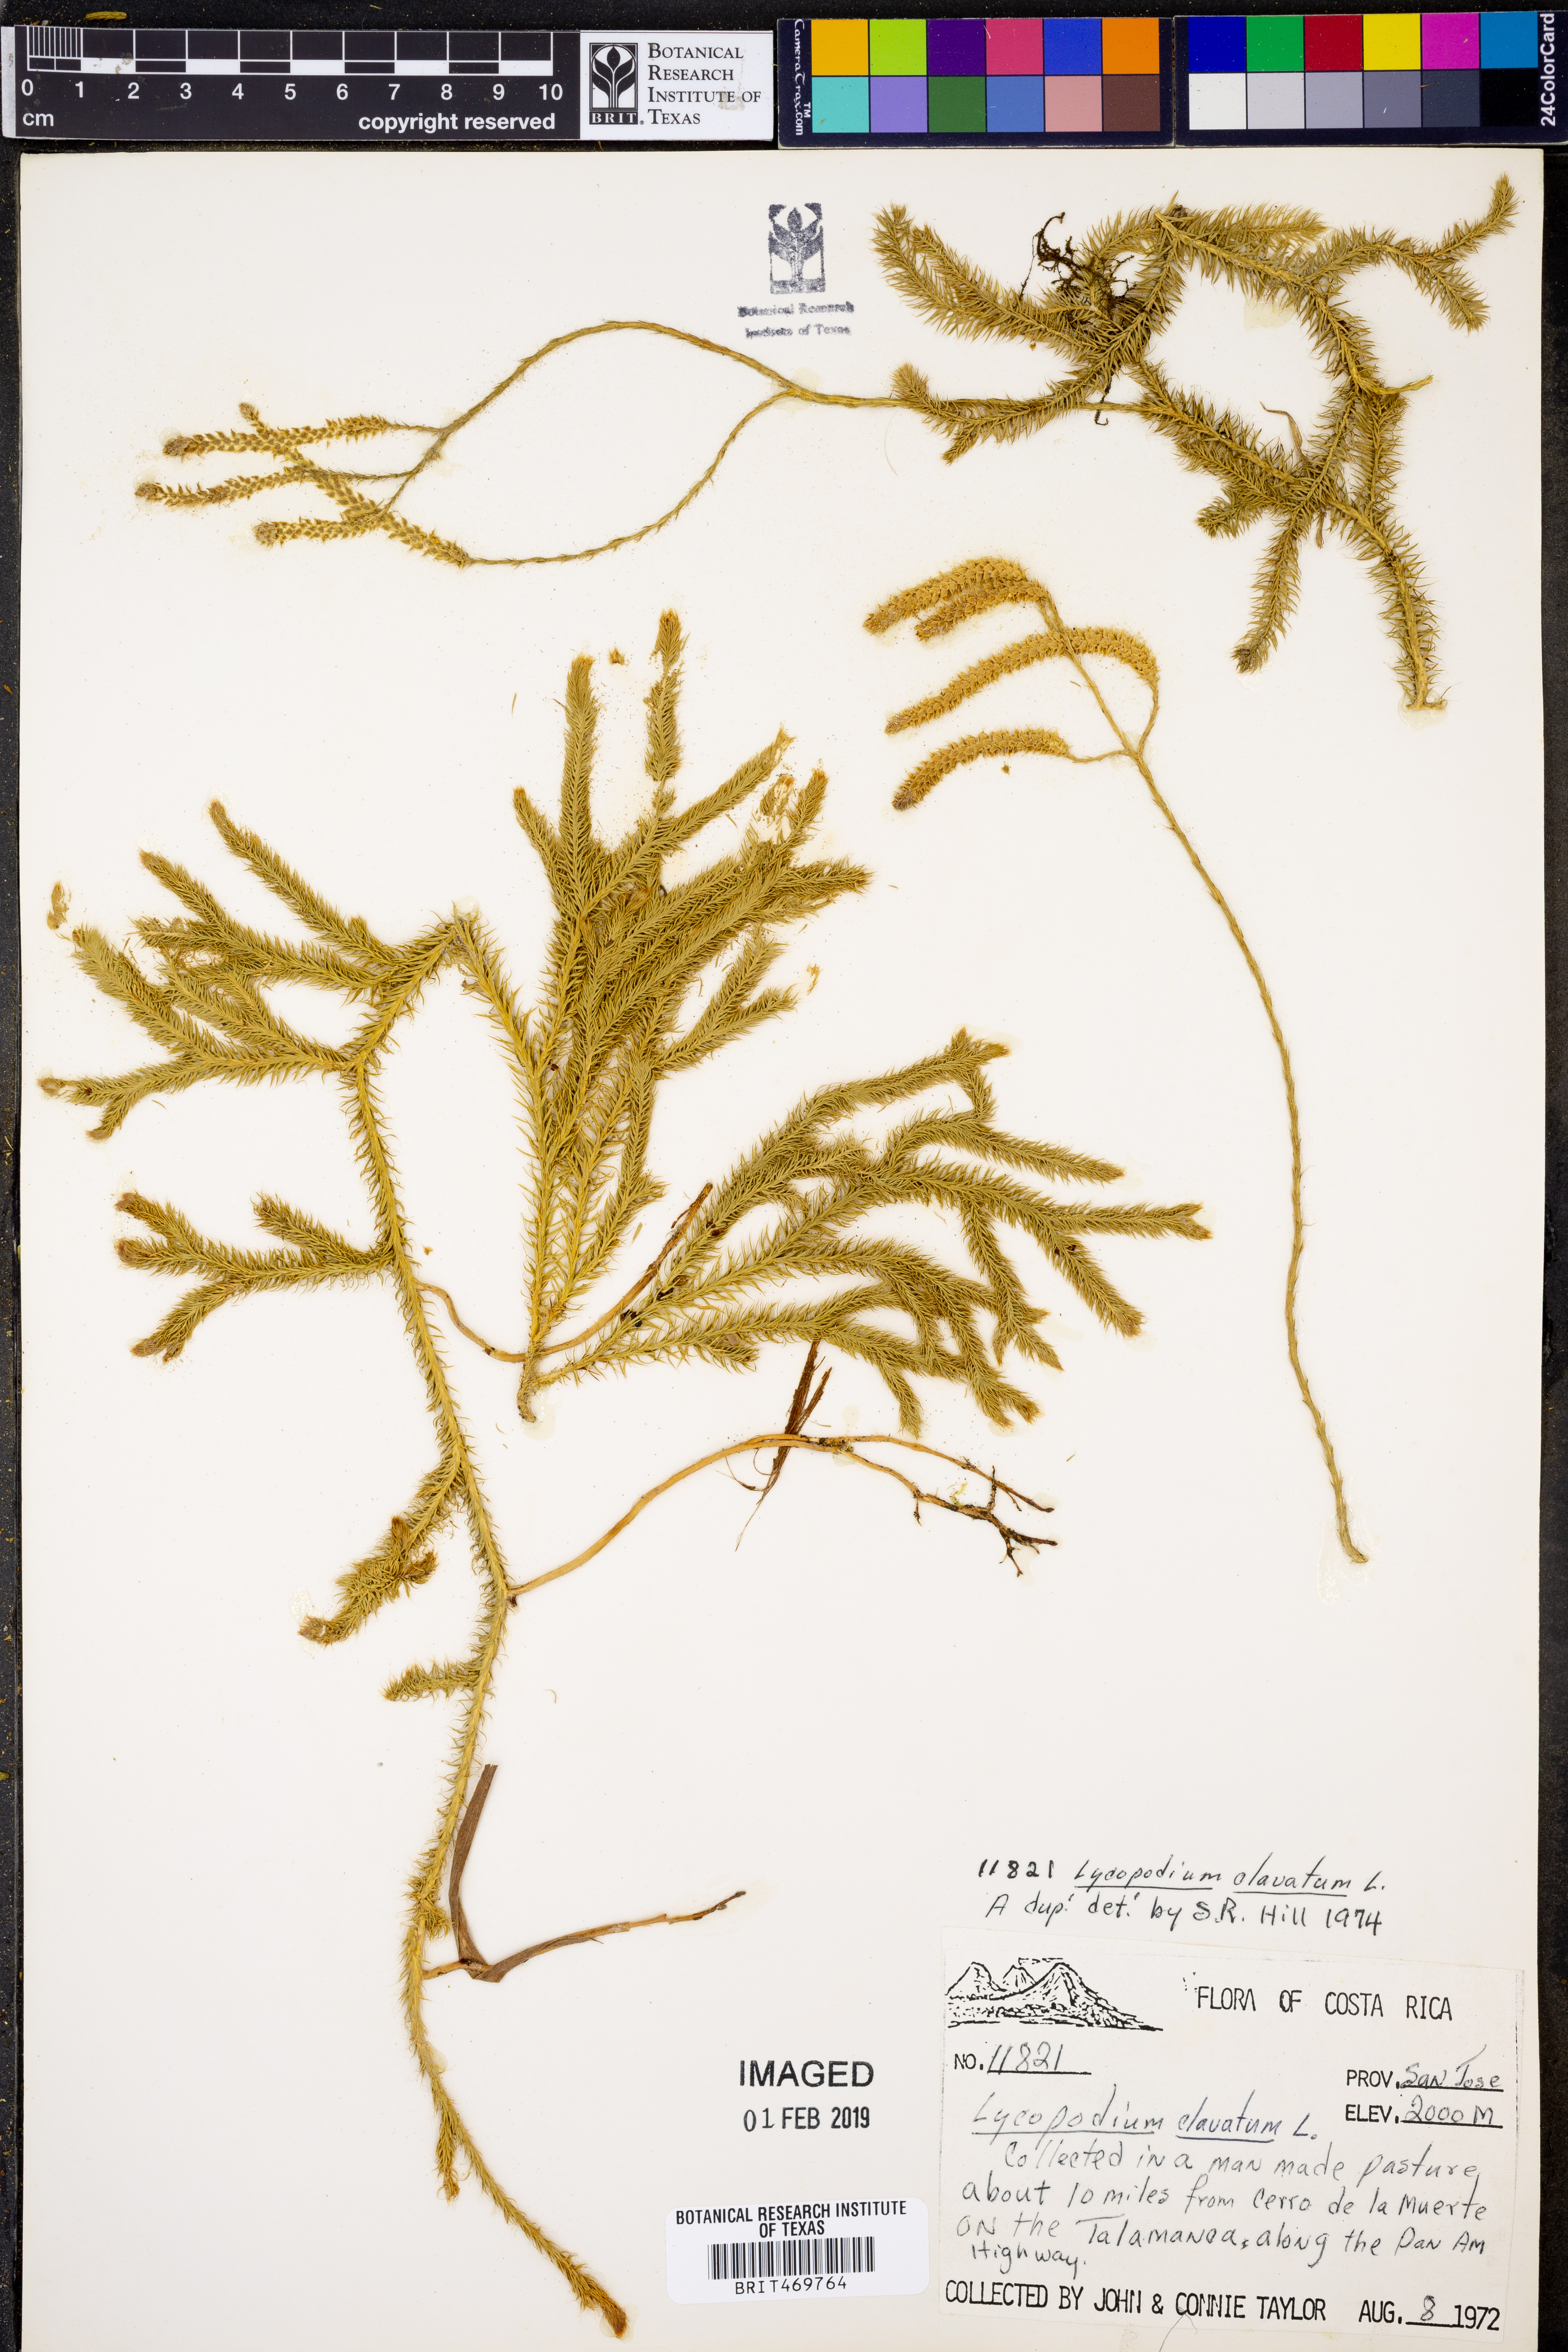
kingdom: Plantae
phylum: Tracheophyta
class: Lycopodiopsida
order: Lycopodiales
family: Lycopodiaceae
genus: Lycopodium
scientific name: Lycopodium clavatum
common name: Stag's-horn clubmoss
